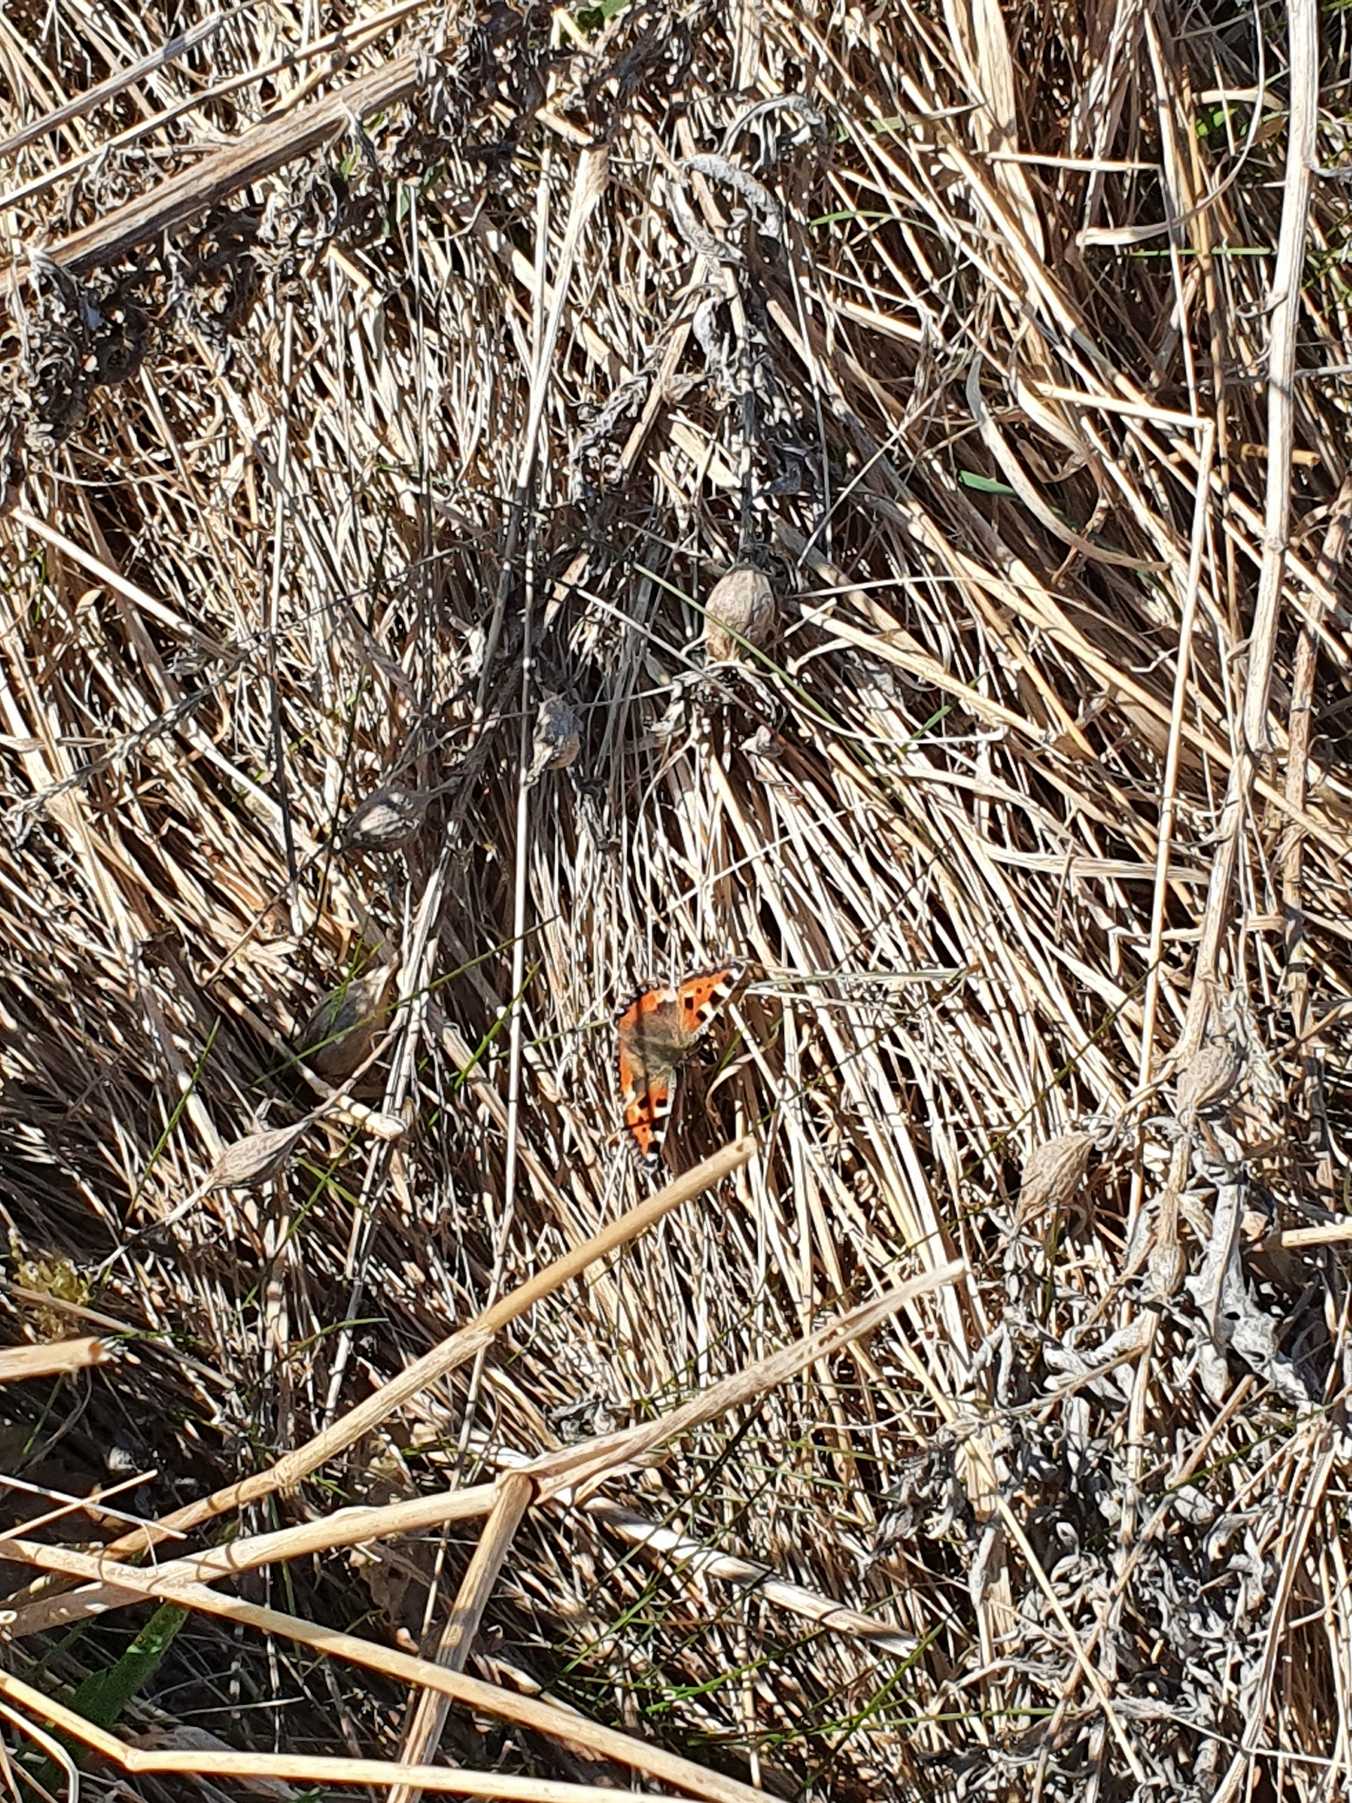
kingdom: Animalia
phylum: Arthropoda
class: Insecta
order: Lepidoptera
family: Nymphalidae
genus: Aglais
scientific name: Aglais urticae
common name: Nældens takvinge
